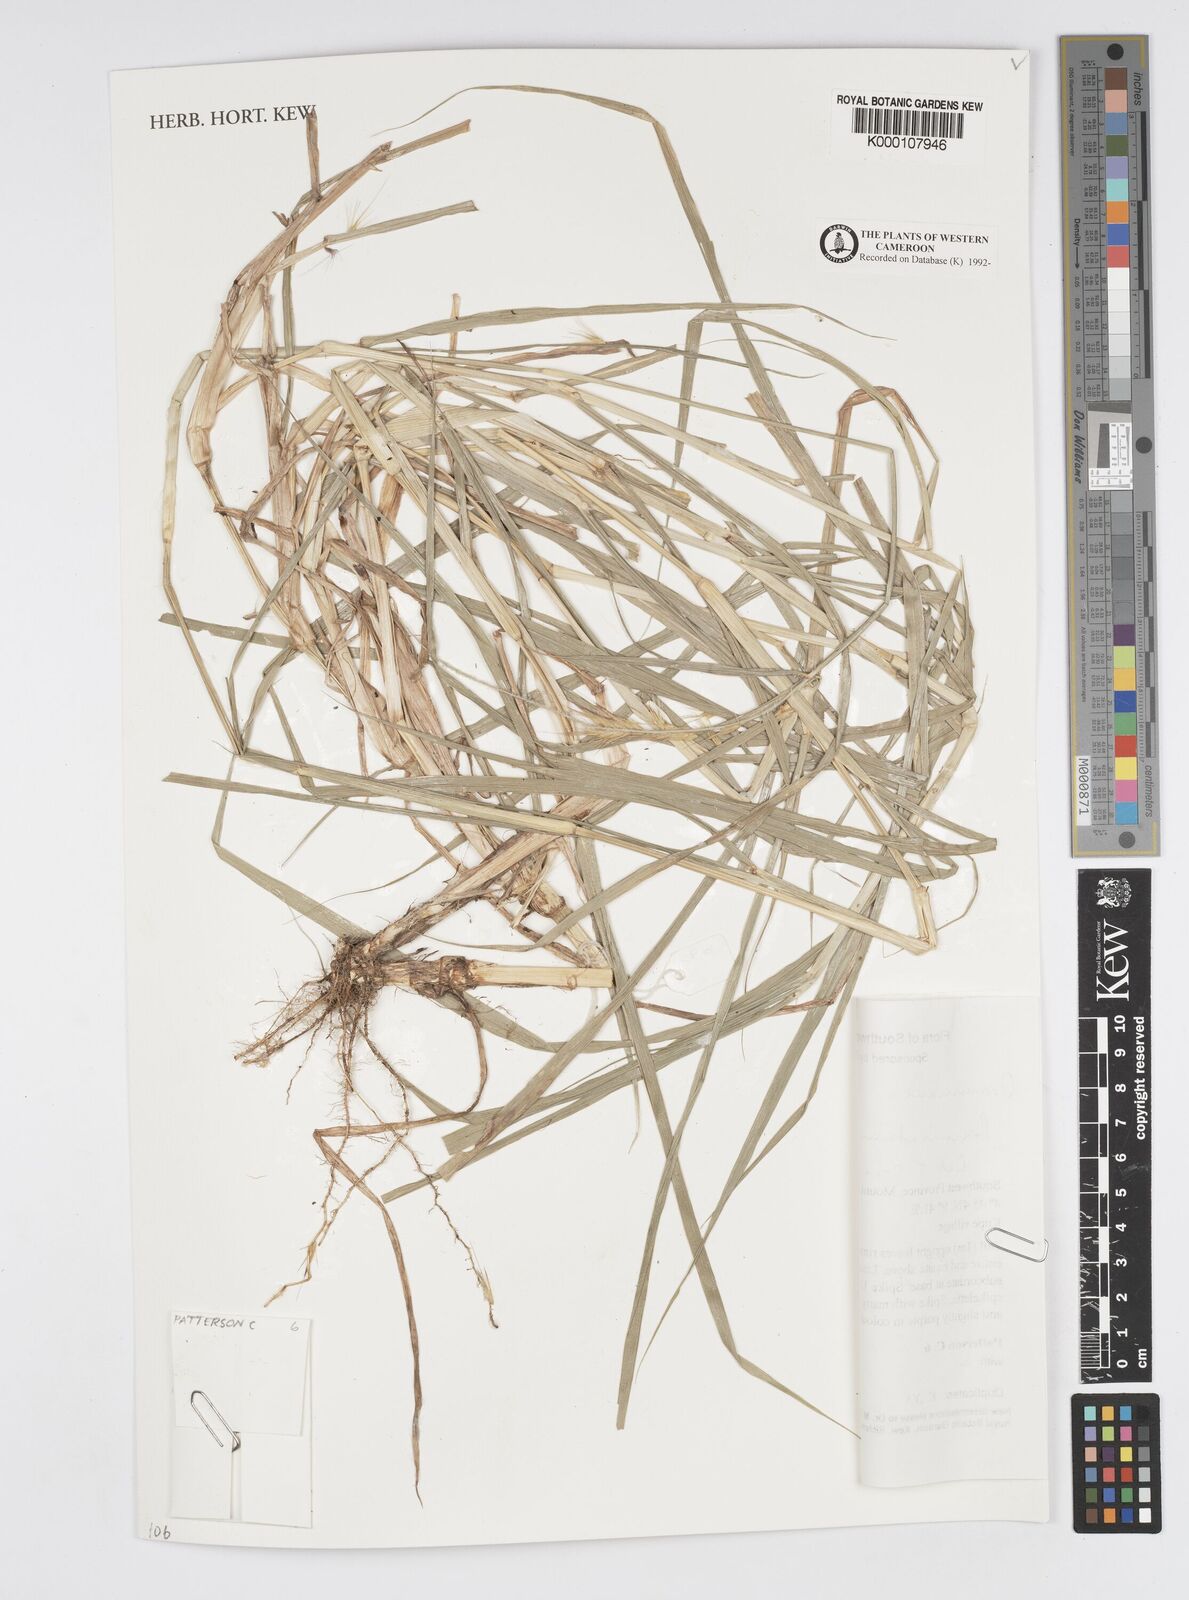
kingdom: Plantae
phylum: Tracheophyta
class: Liliopsida
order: Poales
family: Poaceae
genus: Cenchrus
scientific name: Cenchrus purpureus
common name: Elephant grass
